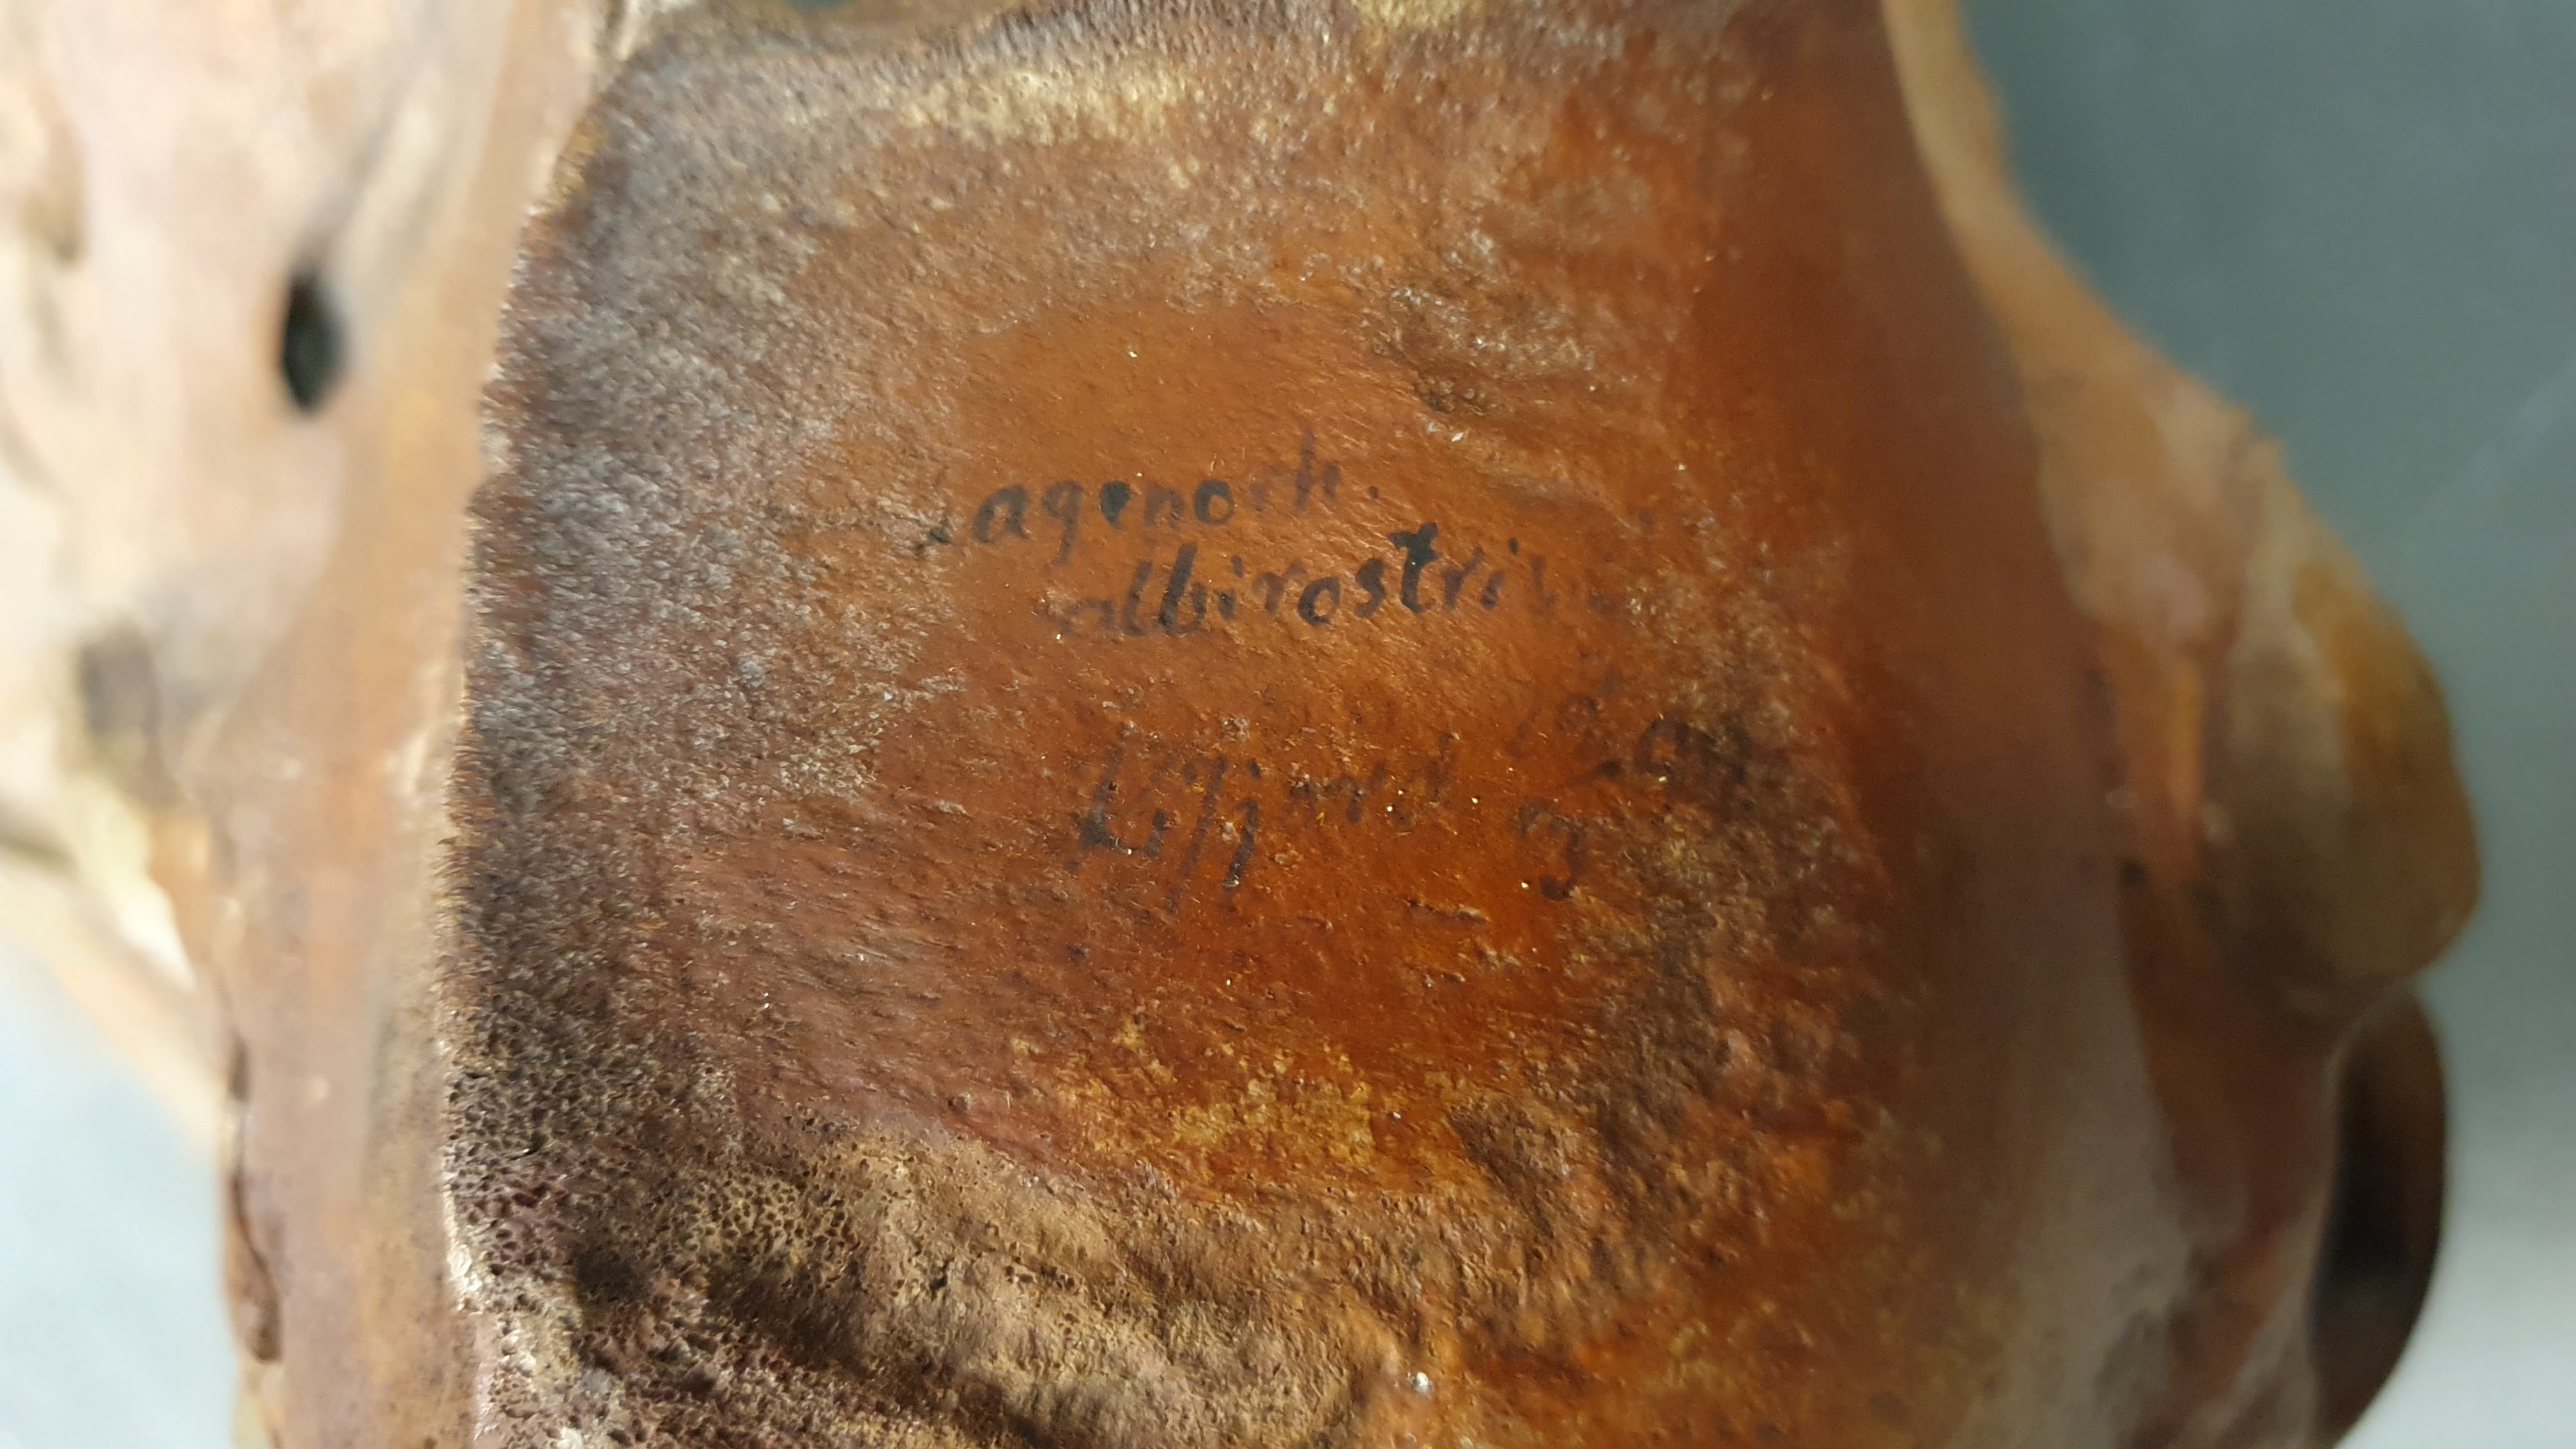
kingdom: Animalia
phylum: Chordata
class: Mammalia
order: Cetacea
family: Delphinidae
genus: Lagenorhynchus
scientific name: Lagenorhynchus albirostris
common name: White-beaked dolphin
